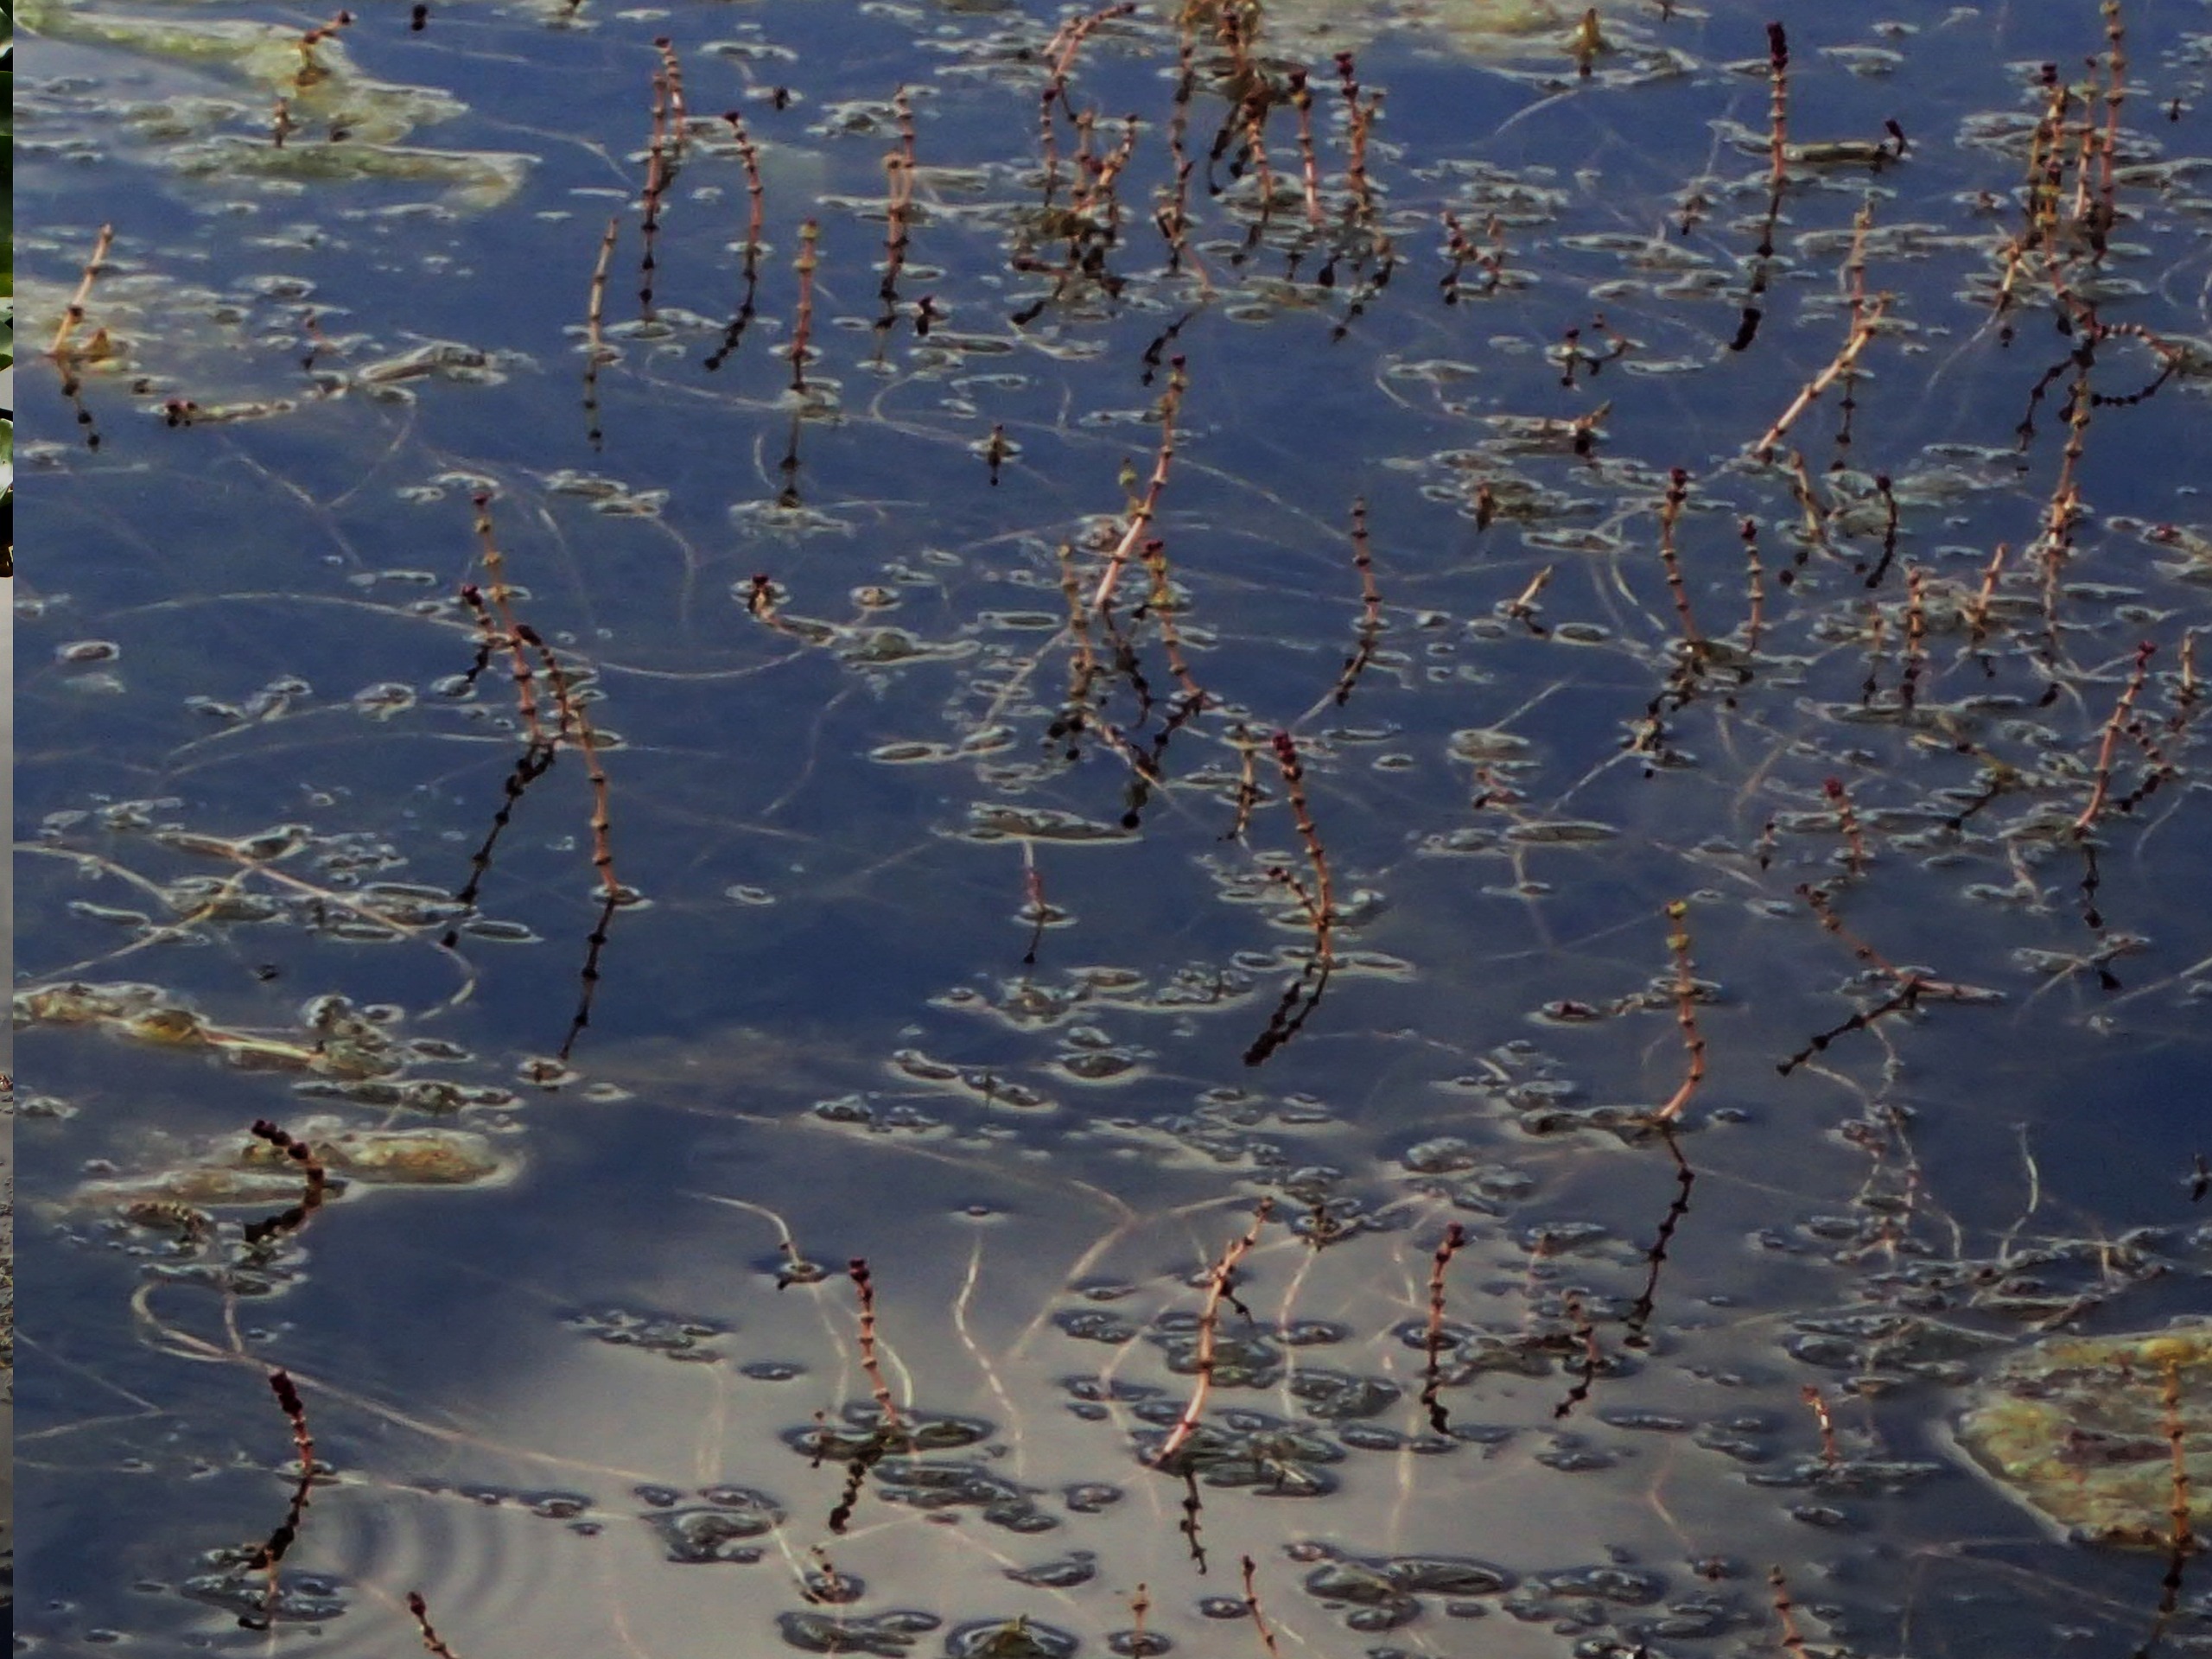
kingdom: Plantae
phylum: Tracheophyta
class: Magnoliopsida
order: Saxifragales
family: Haloragaceae
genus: Myriophyllum
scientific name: Myriophyllum spicatum
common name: Aks-tusindblad
